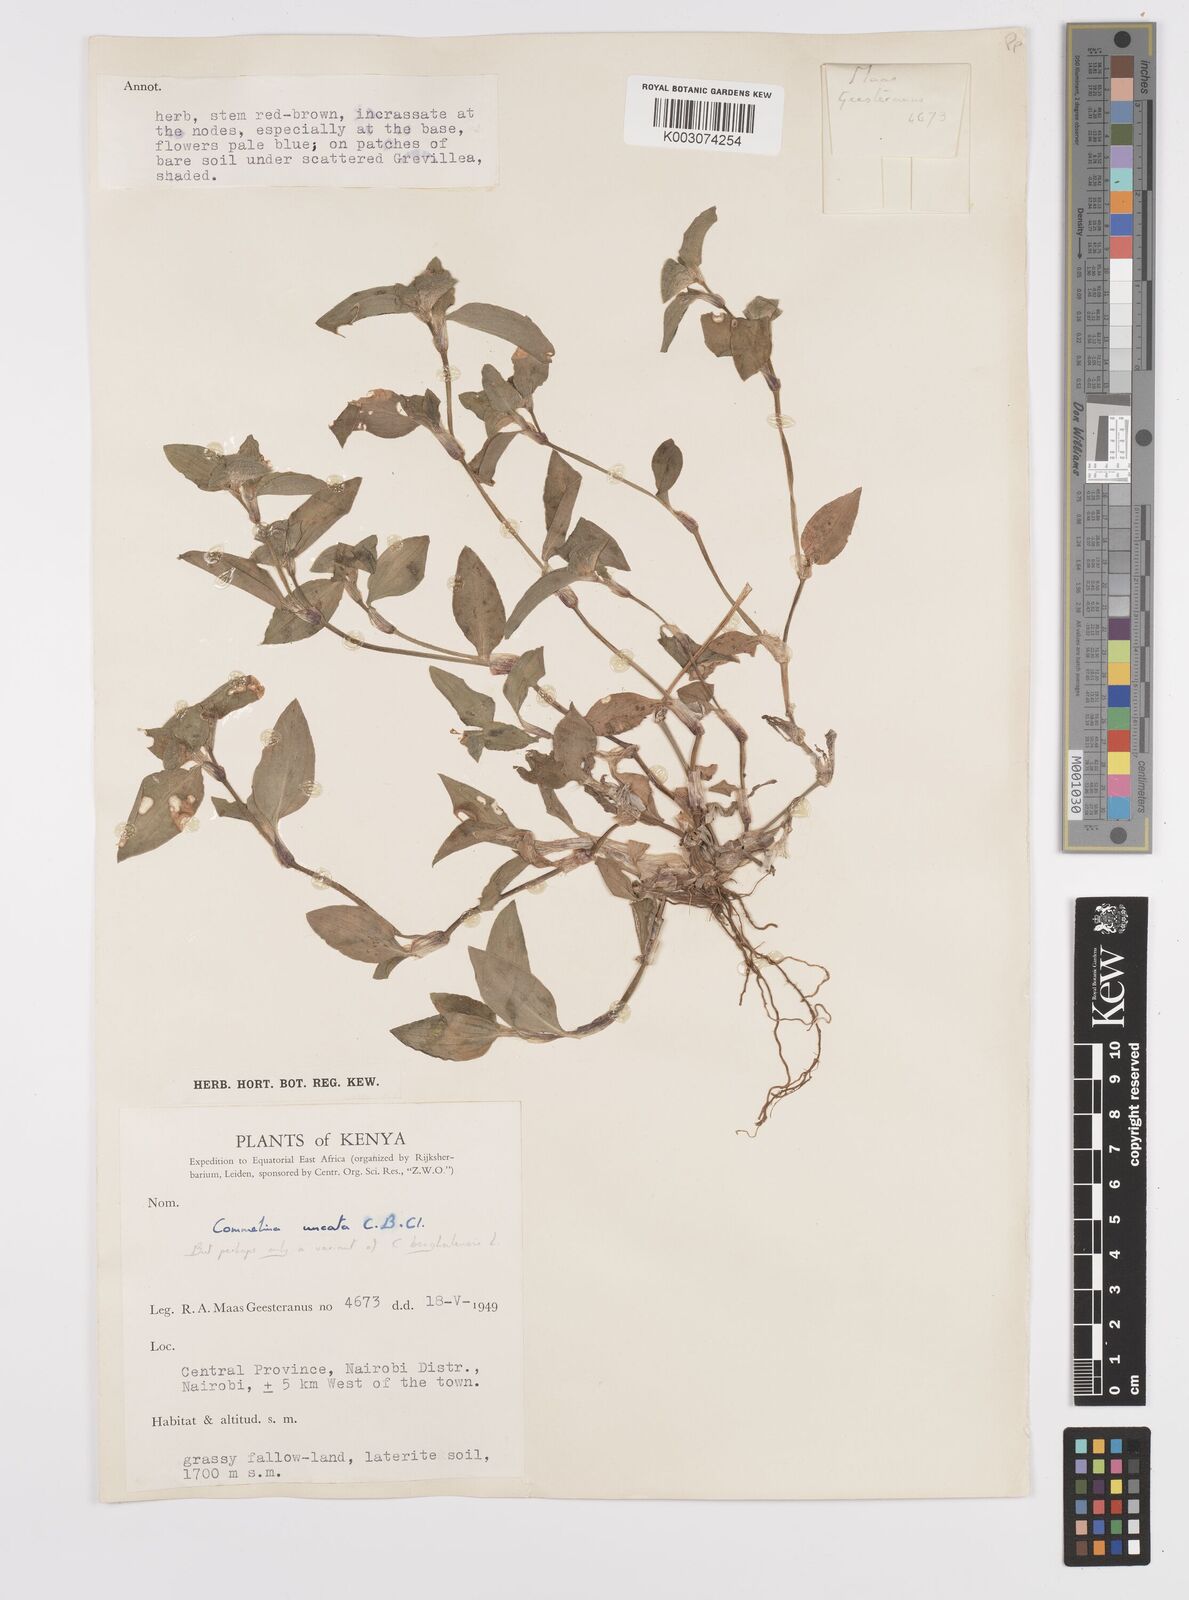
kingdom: Plantae
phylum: Tracheophyta
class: Liliopsida
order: Commelinales
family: Commelinaceae
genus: Commelina
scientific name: Commelina benghalensis
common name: Jio
